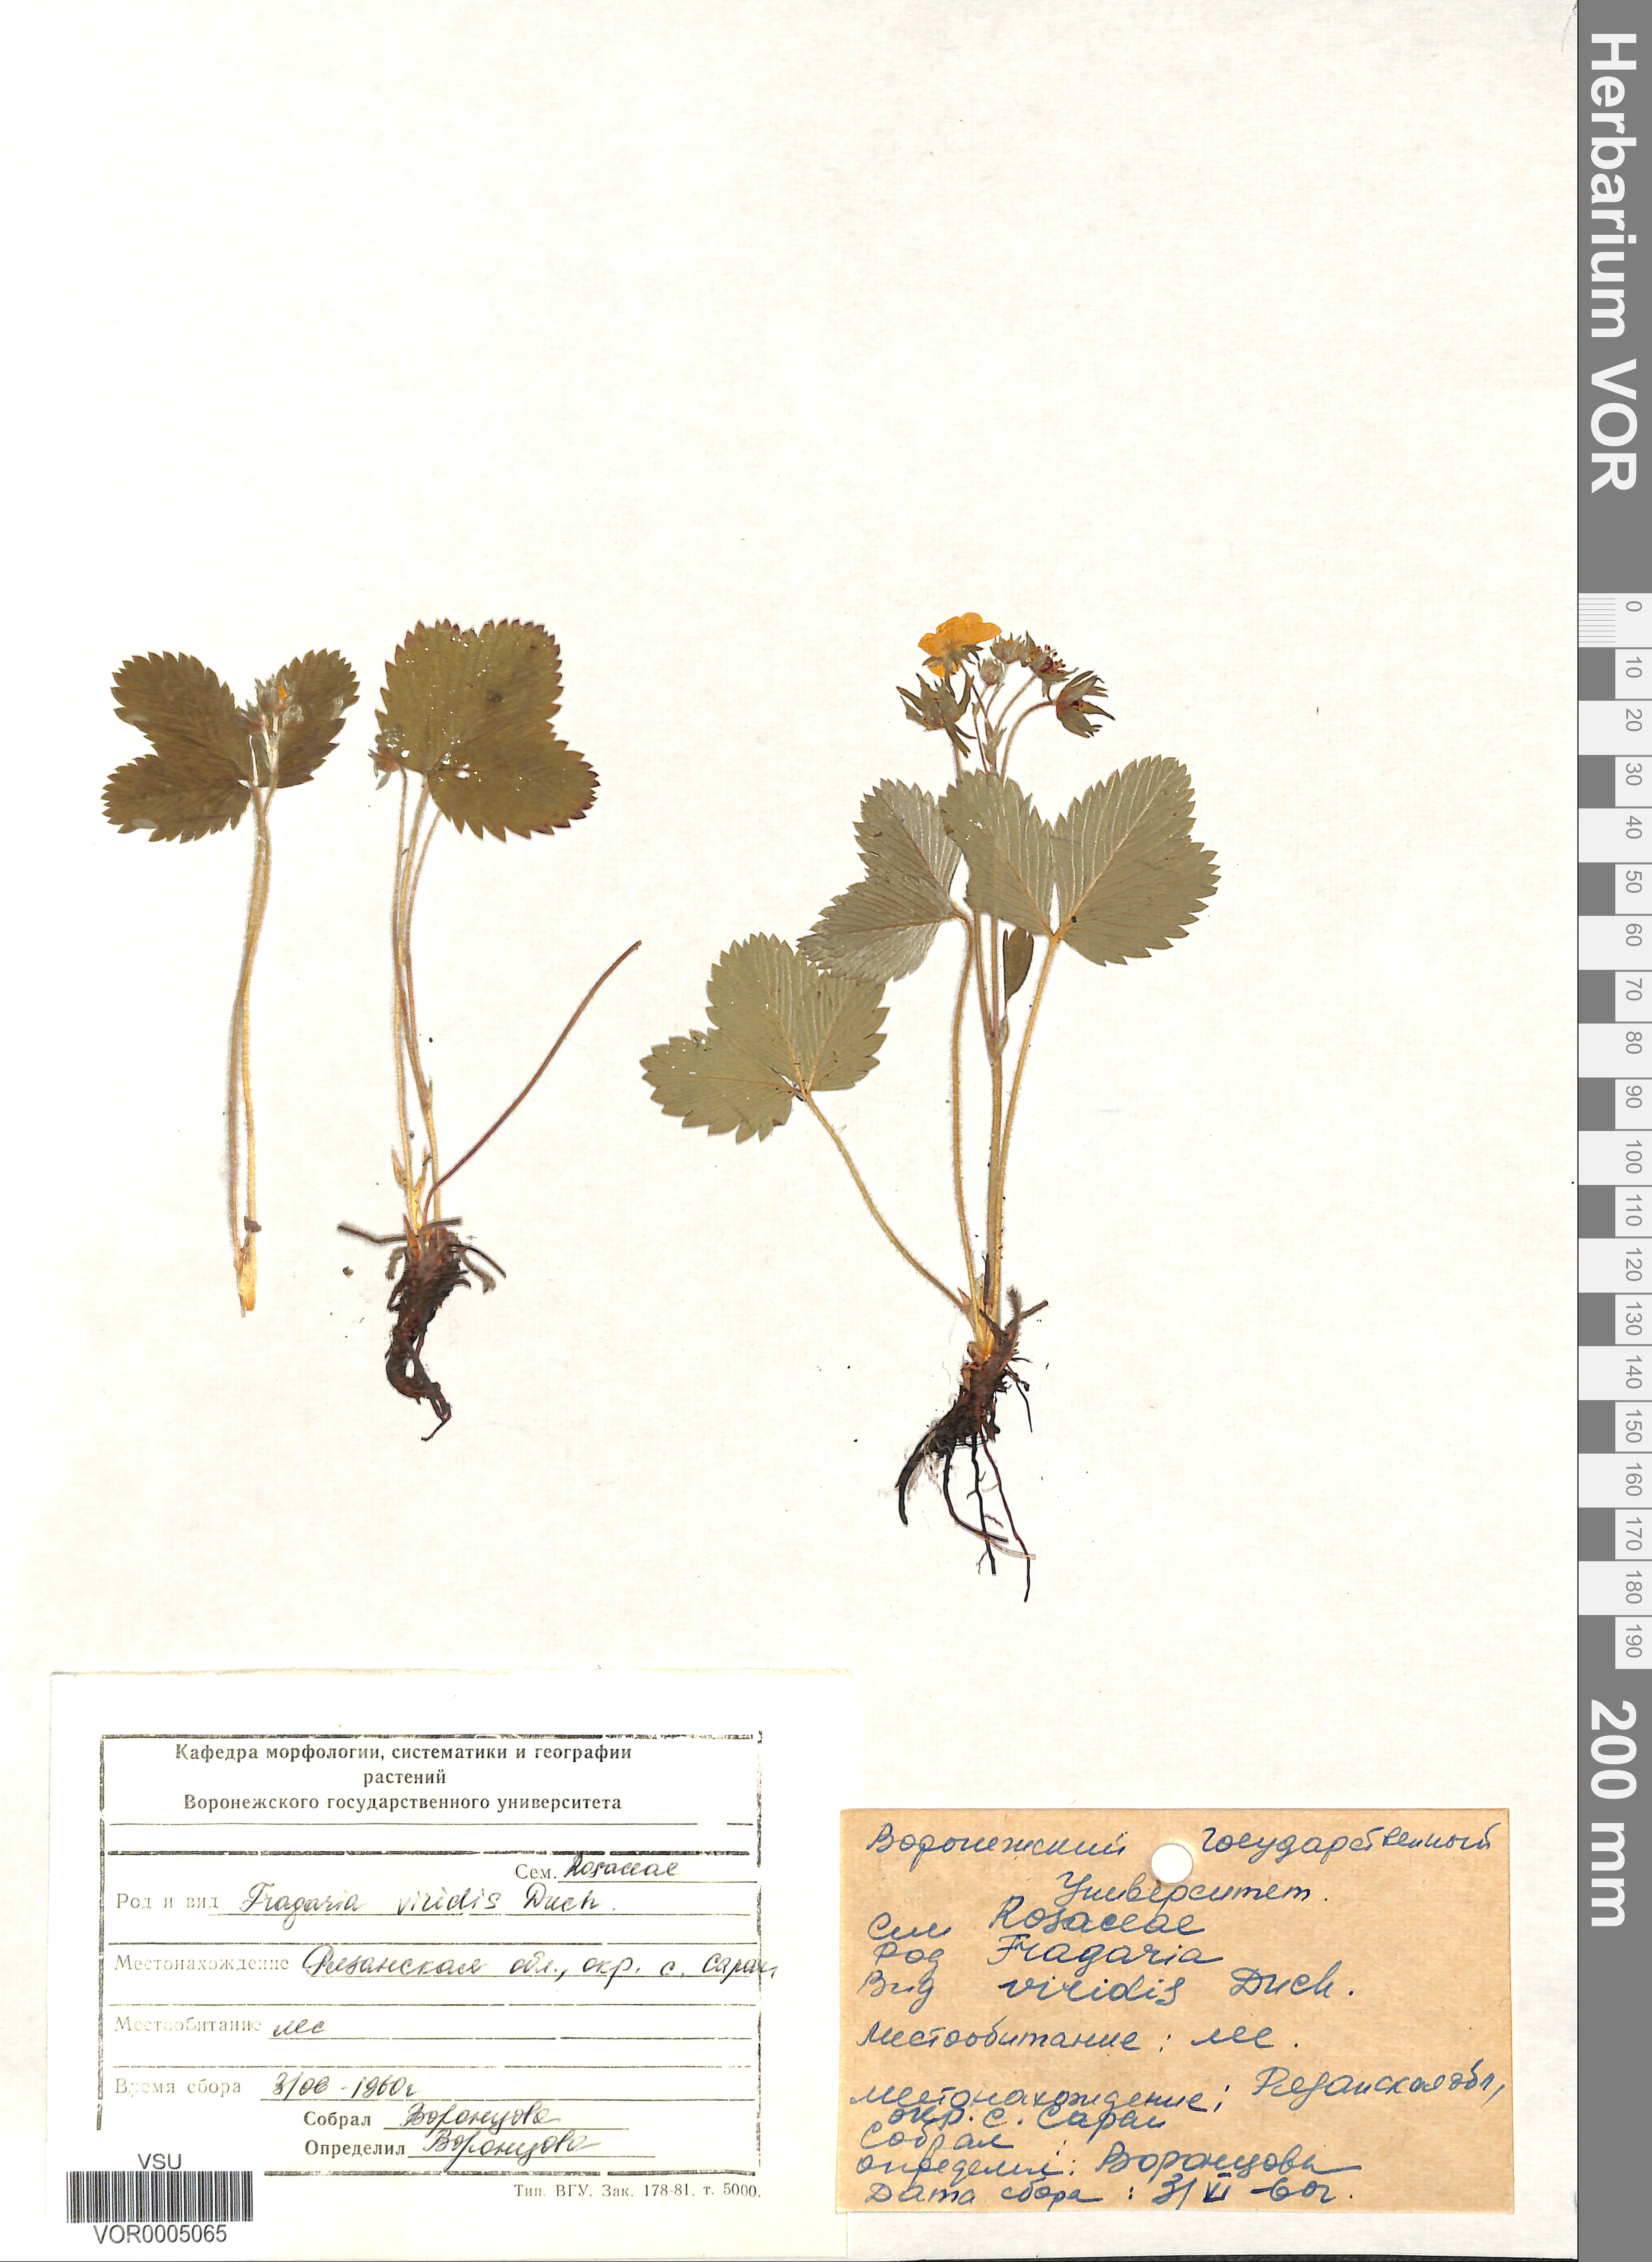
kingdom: Plantae
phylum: Tracheophyta
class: Magnoliopsida
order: Rosales
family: Rosaceae
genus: Fragaria
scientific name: Fragaria viridis
